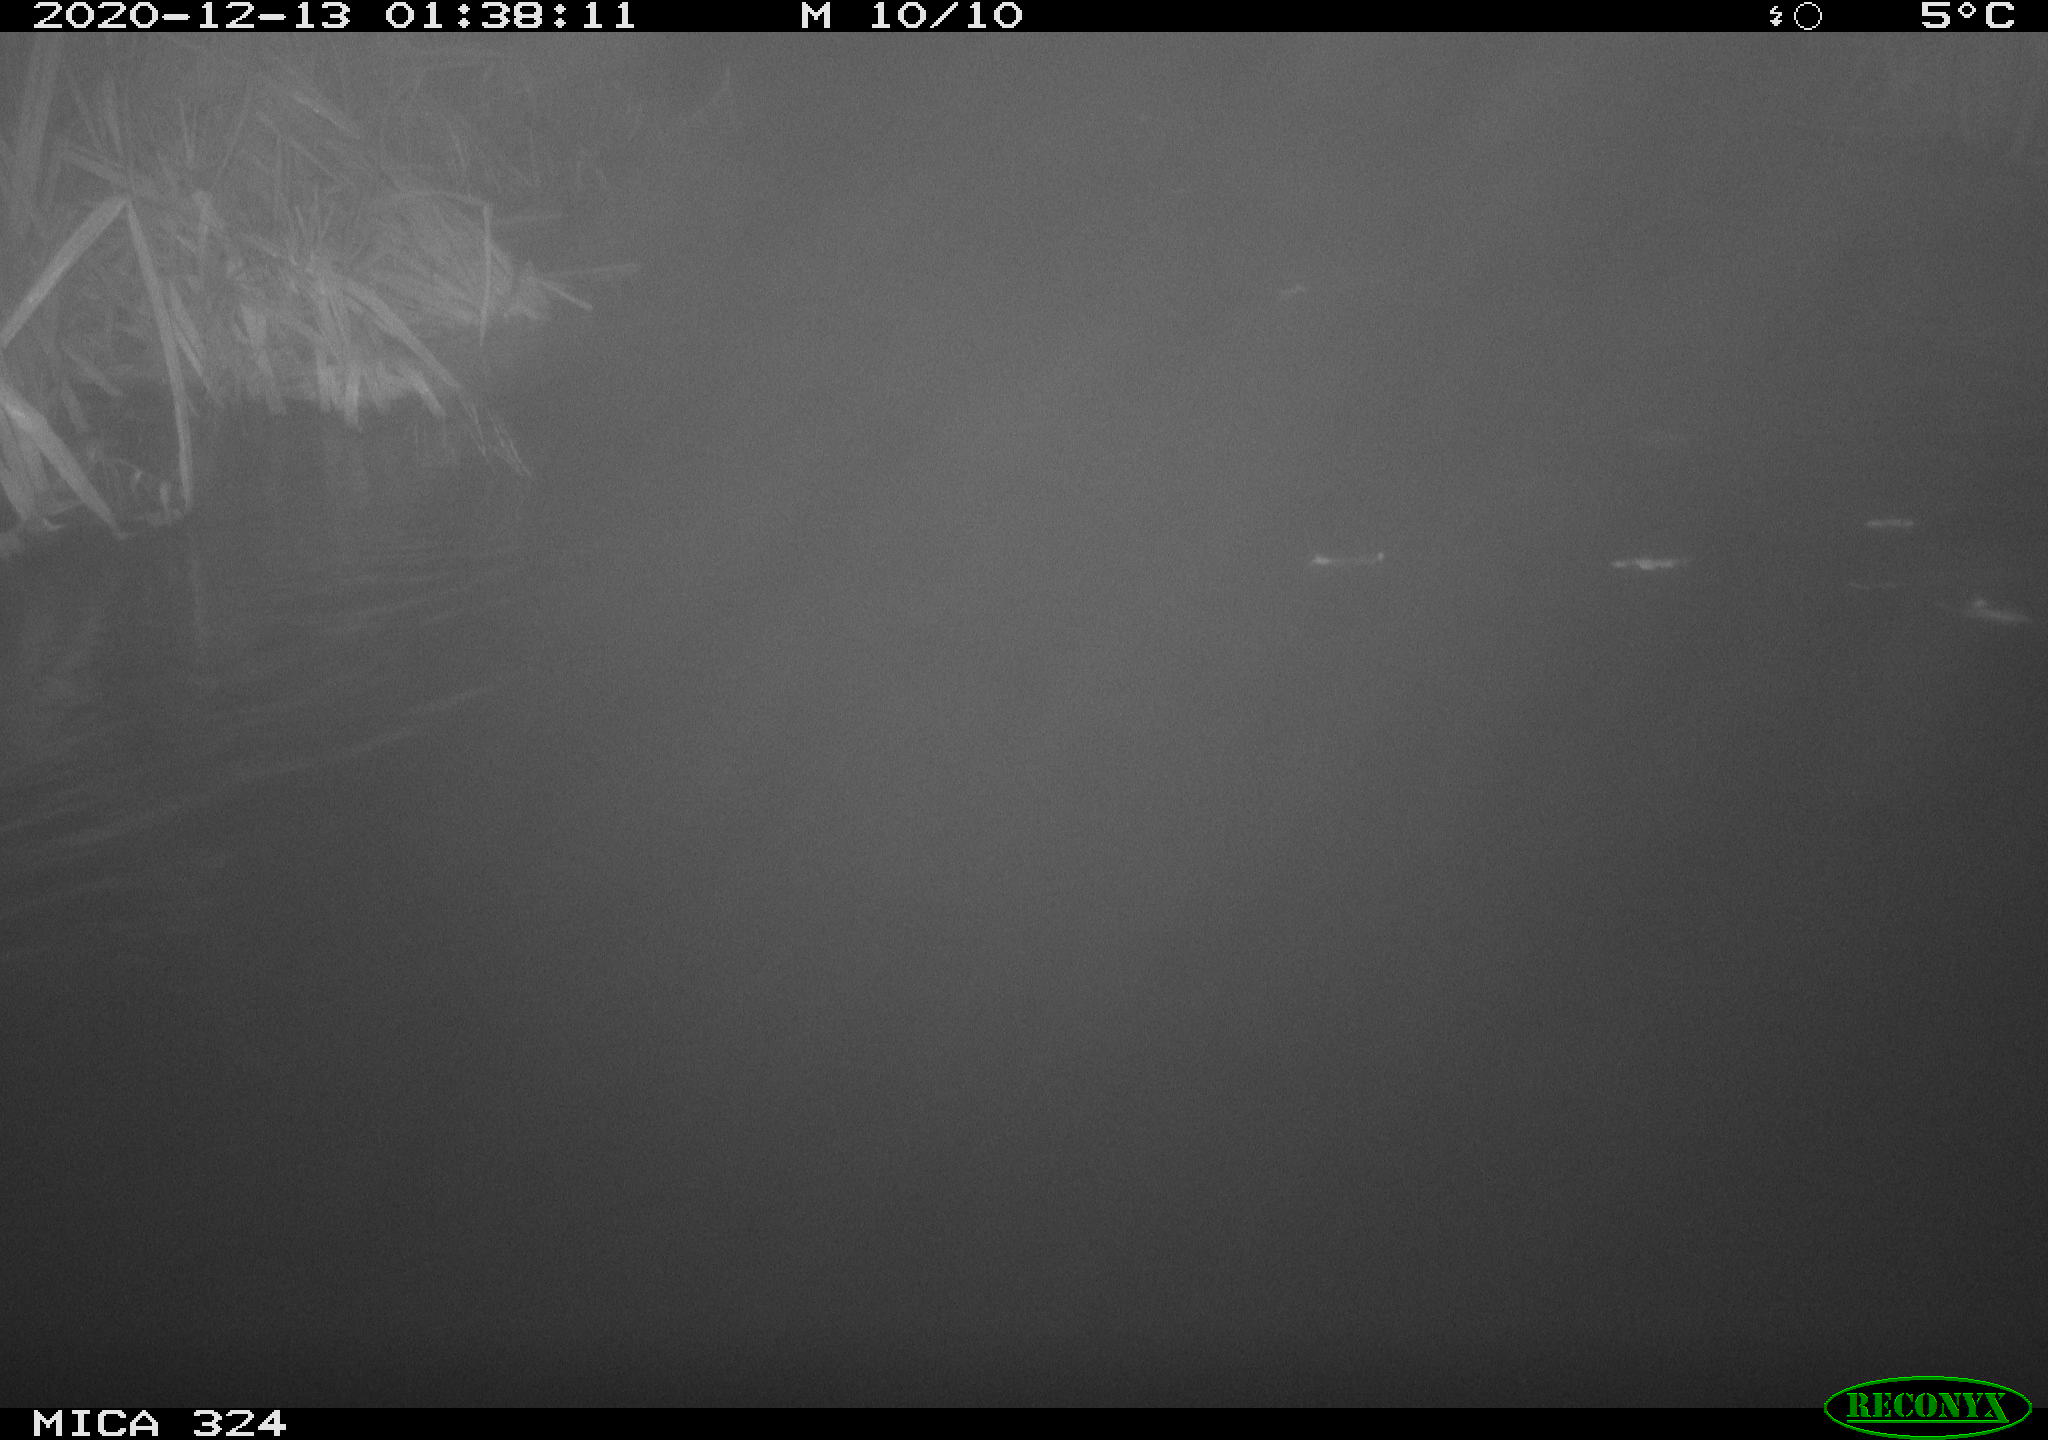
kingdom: Animalia
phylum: Chordata
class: Mammalia
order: Rodentia
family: Myocastoridae
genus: Myocastor
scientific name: Myocastor coypus
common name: Coypu
